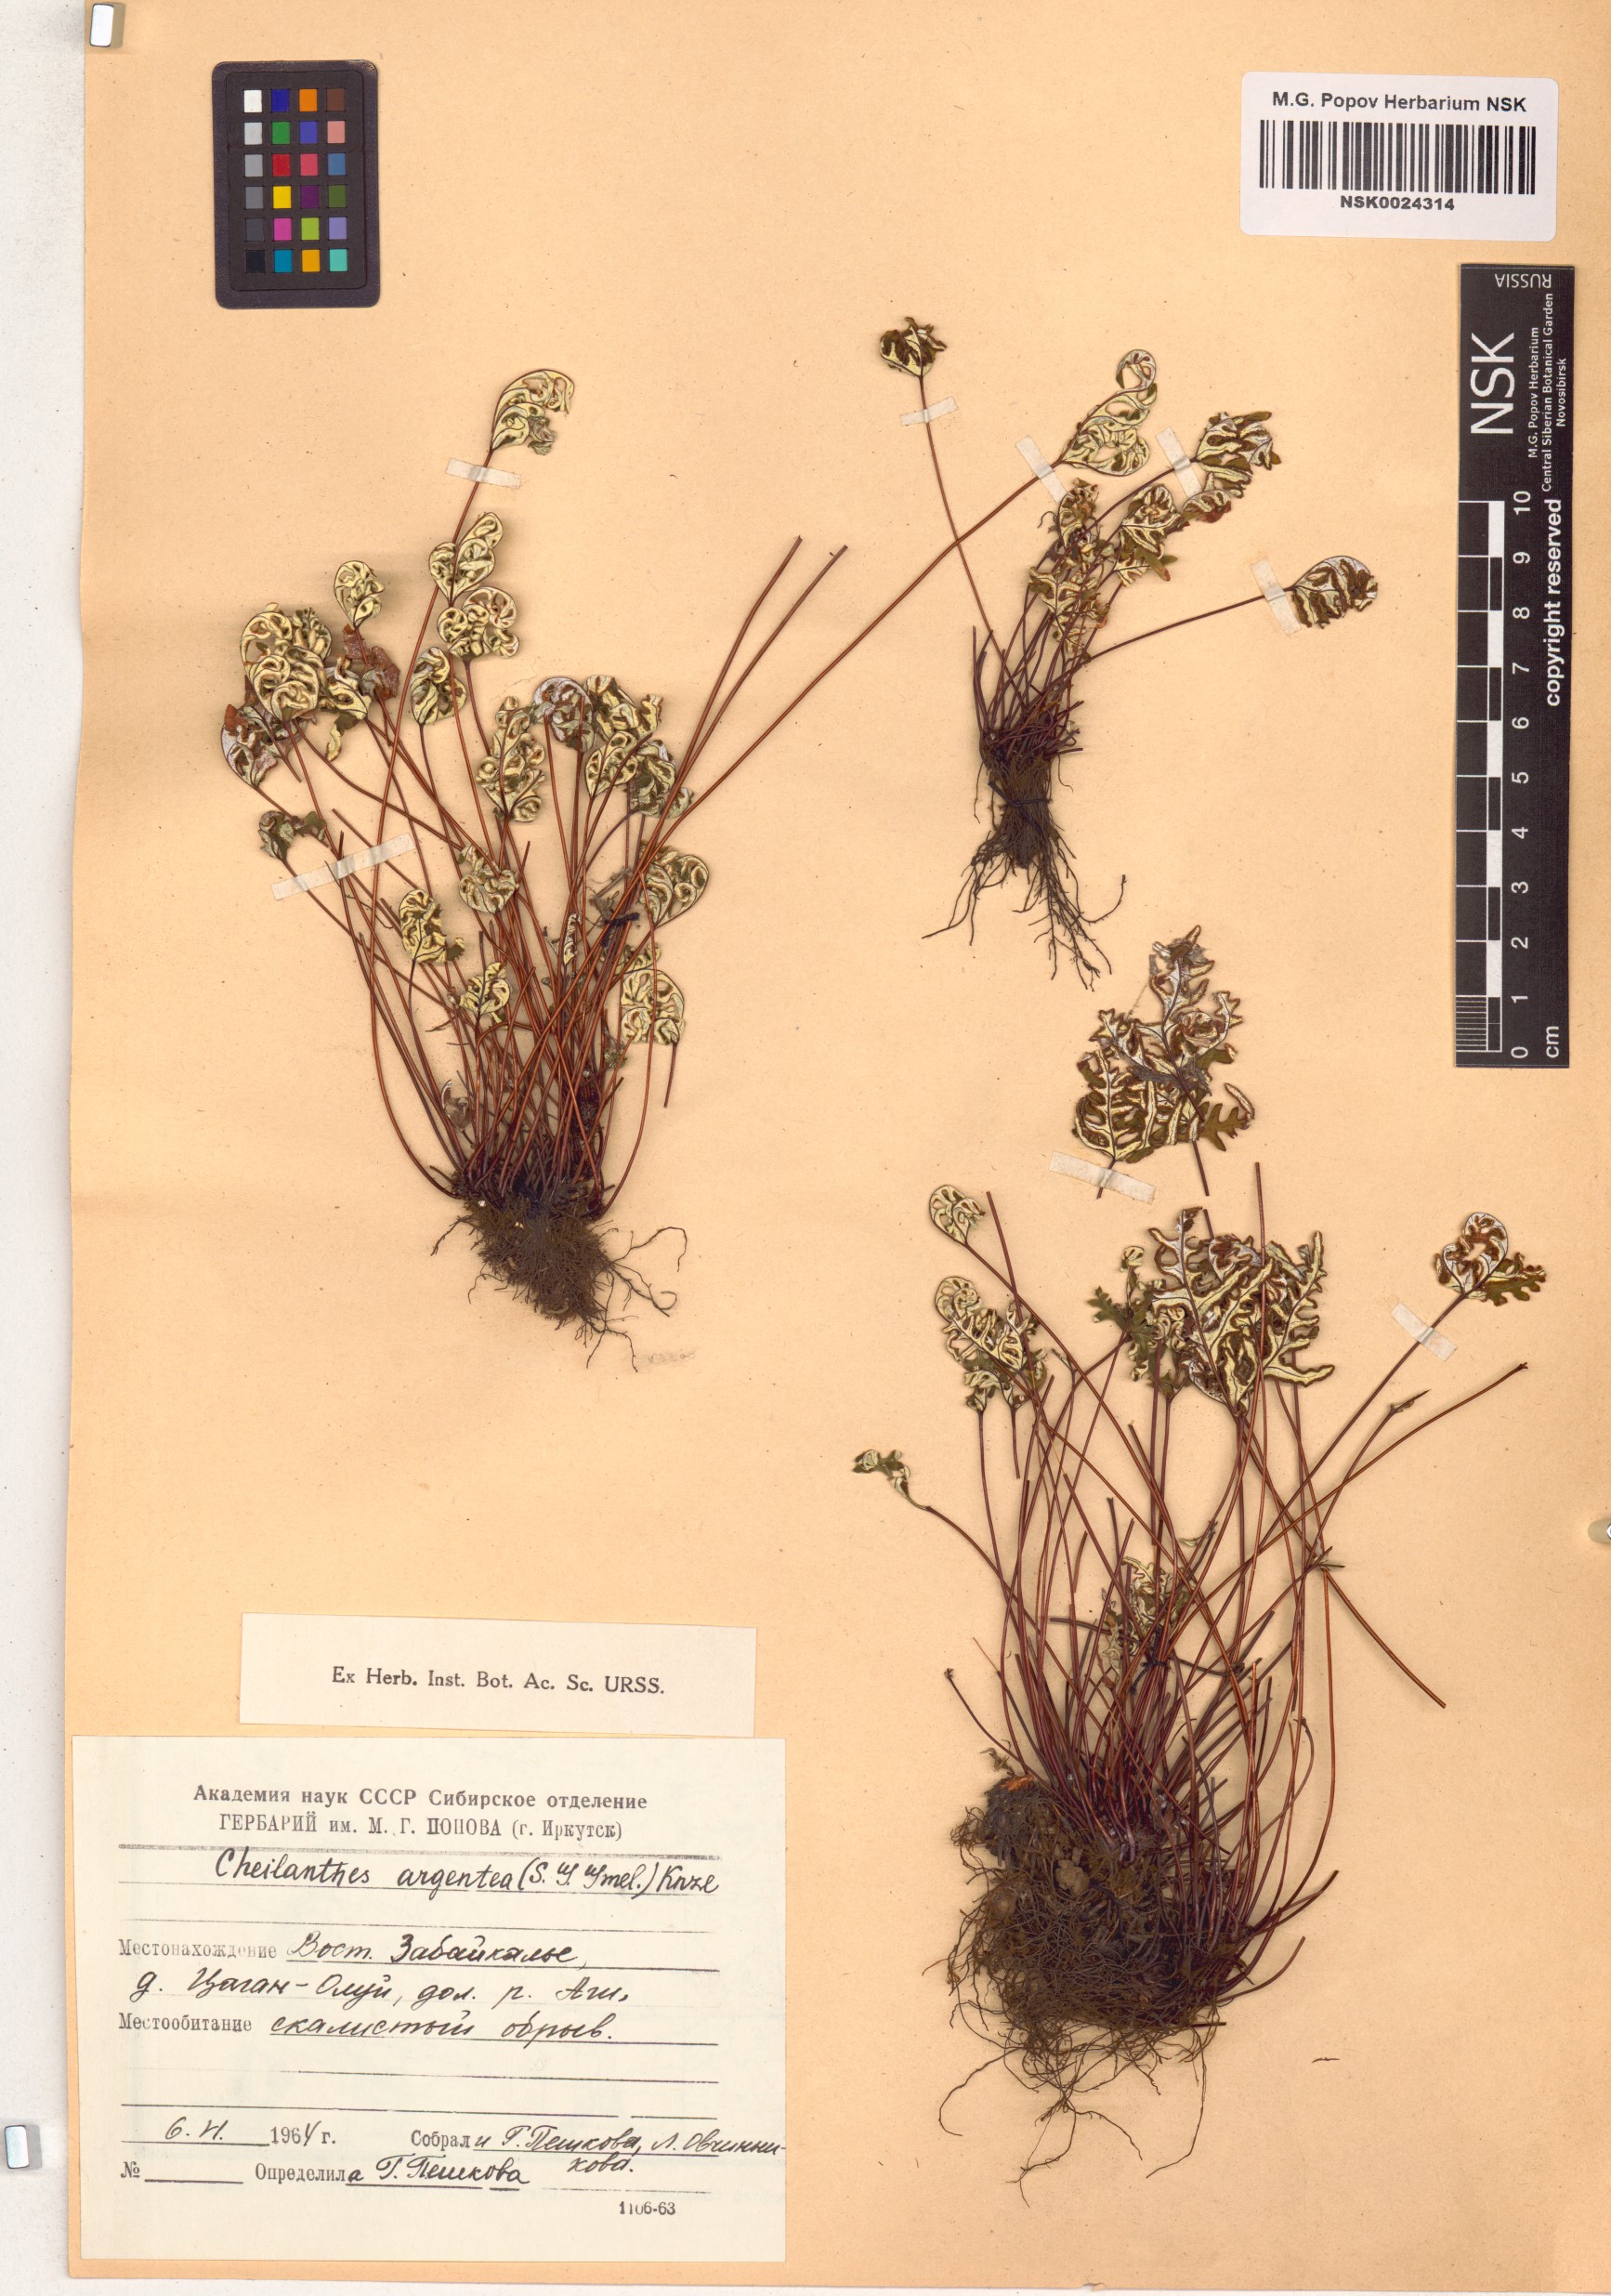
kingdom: Plantae
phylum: Tracheophyta
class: Polypodiopsida
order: Polypodiales
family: Pteridaceae
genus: Aleuritopteris
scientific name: Aleuritopteris argentea
